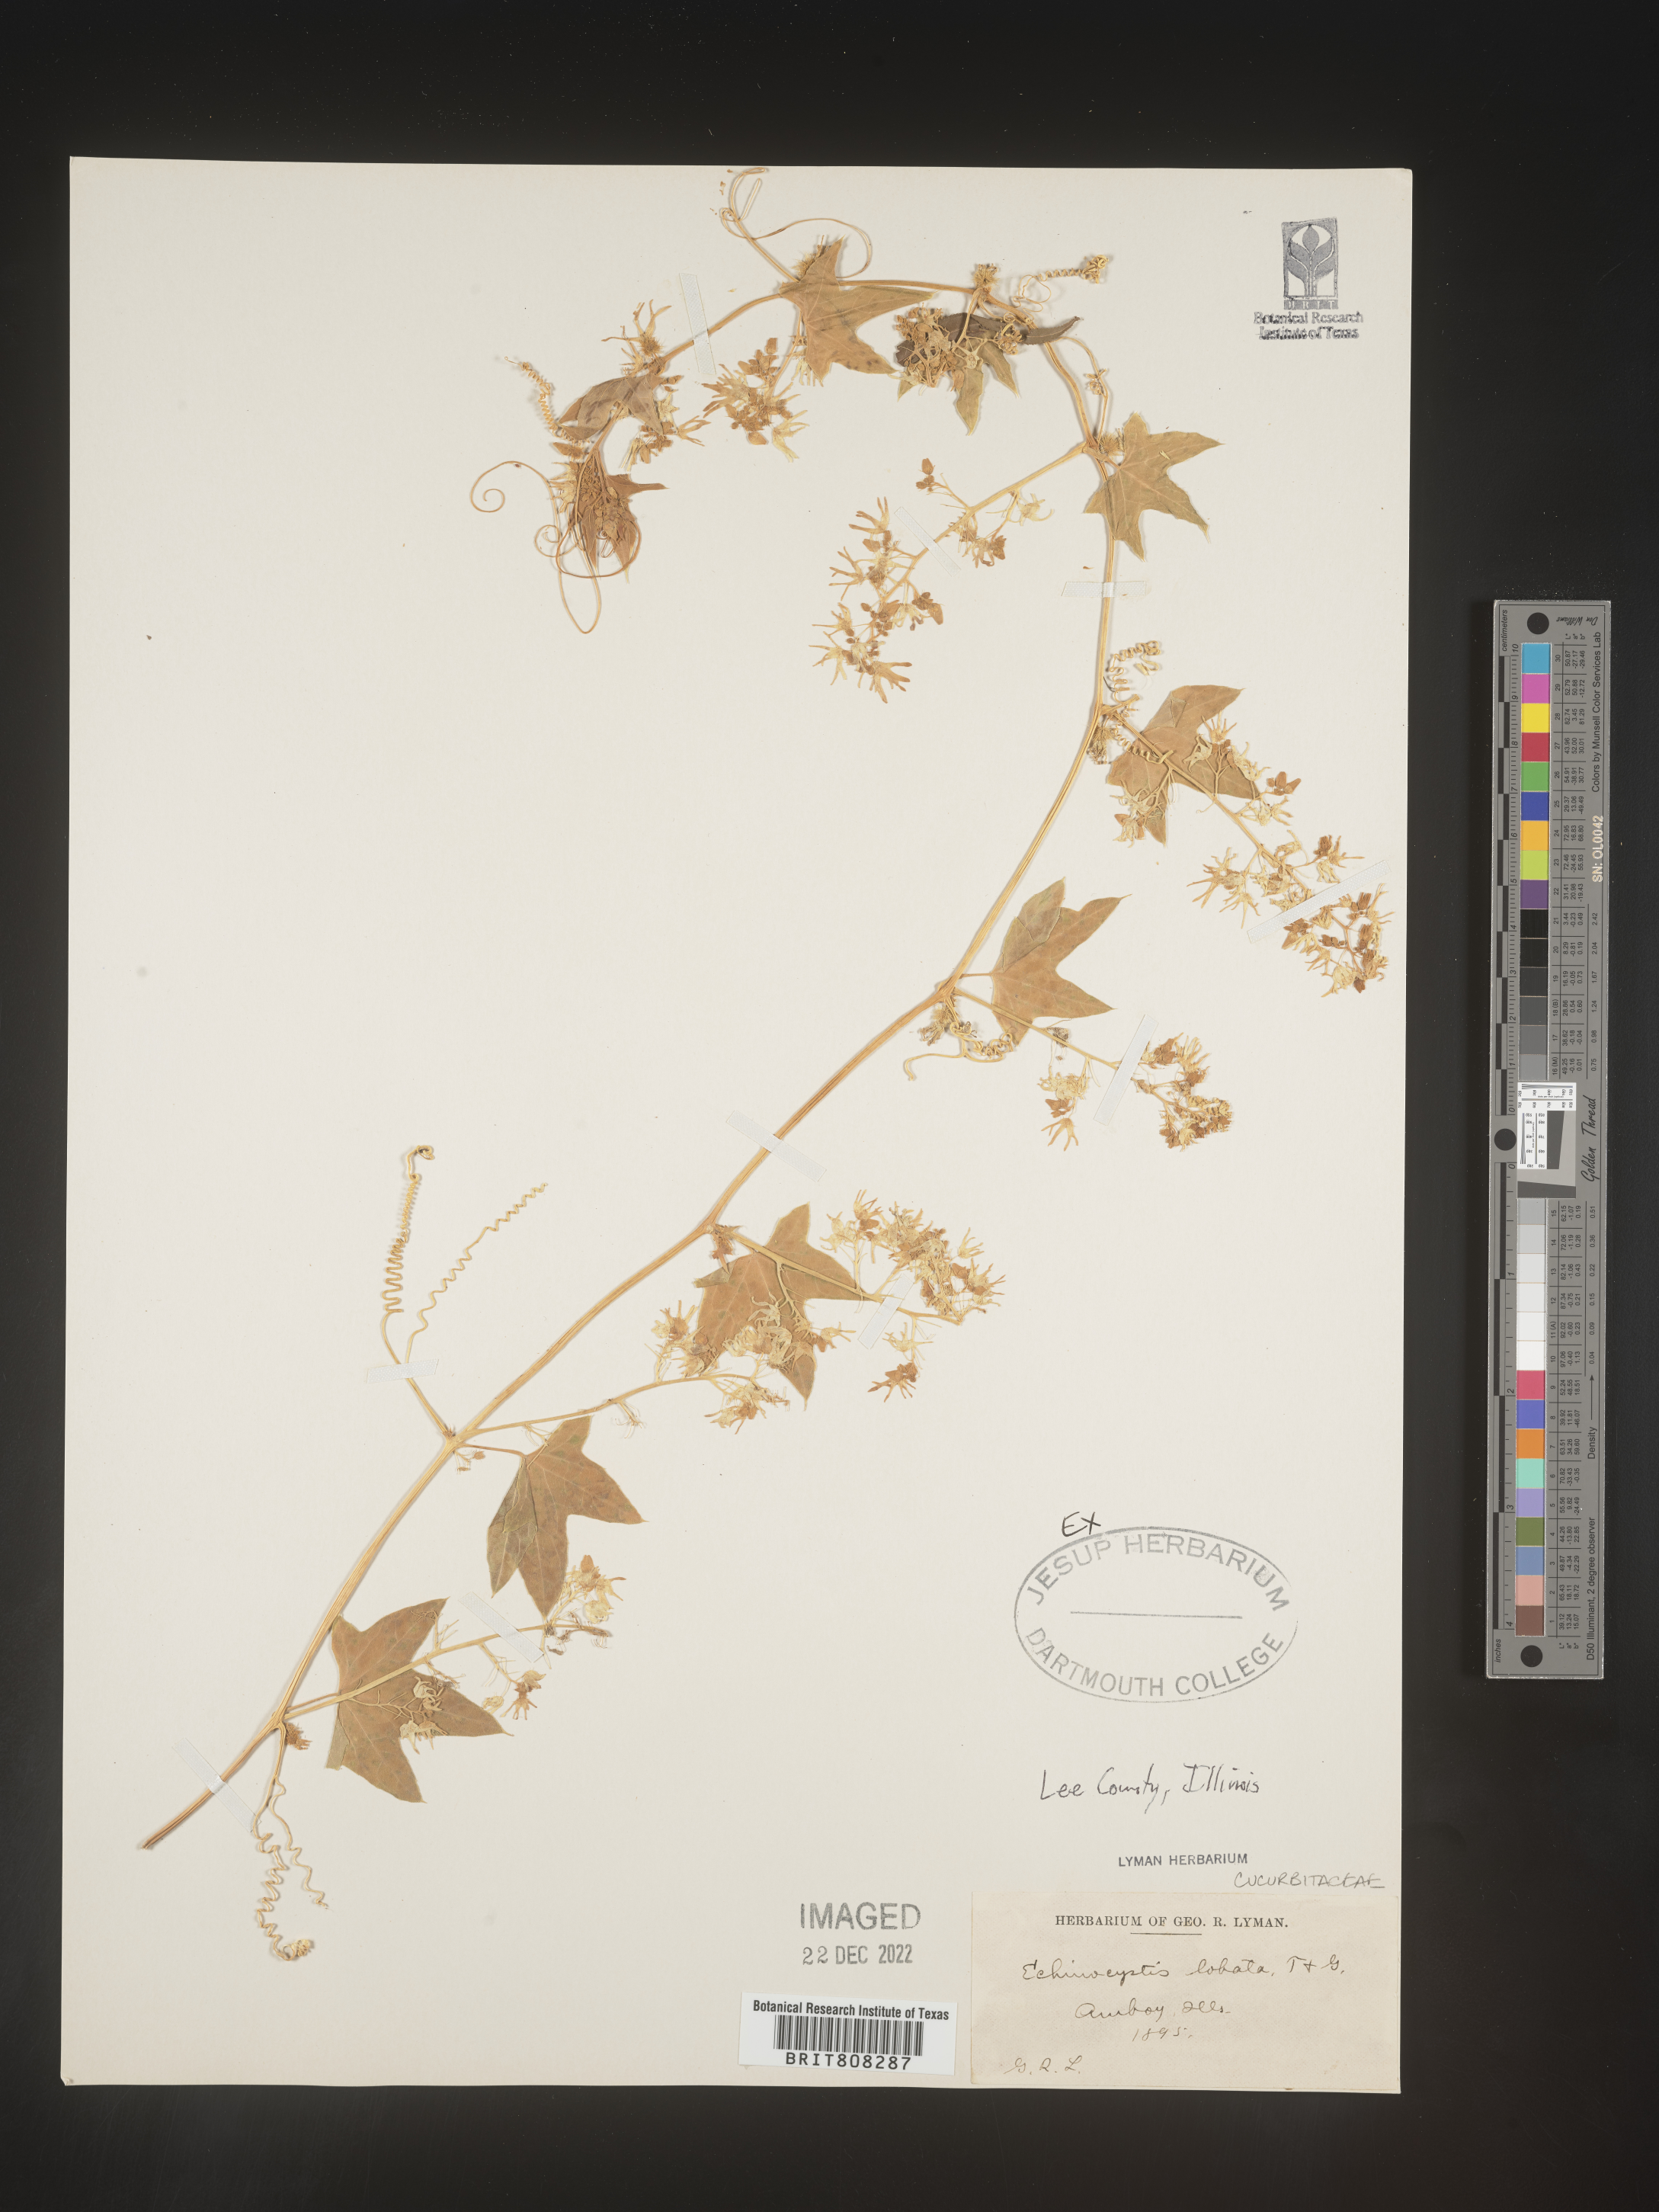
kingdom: Plantae
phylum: Tracheophyta
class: Magnoliopsida
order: Cucurbitales
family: Cucurbitaceae
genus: Echinocystis
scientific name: Echinocystis
